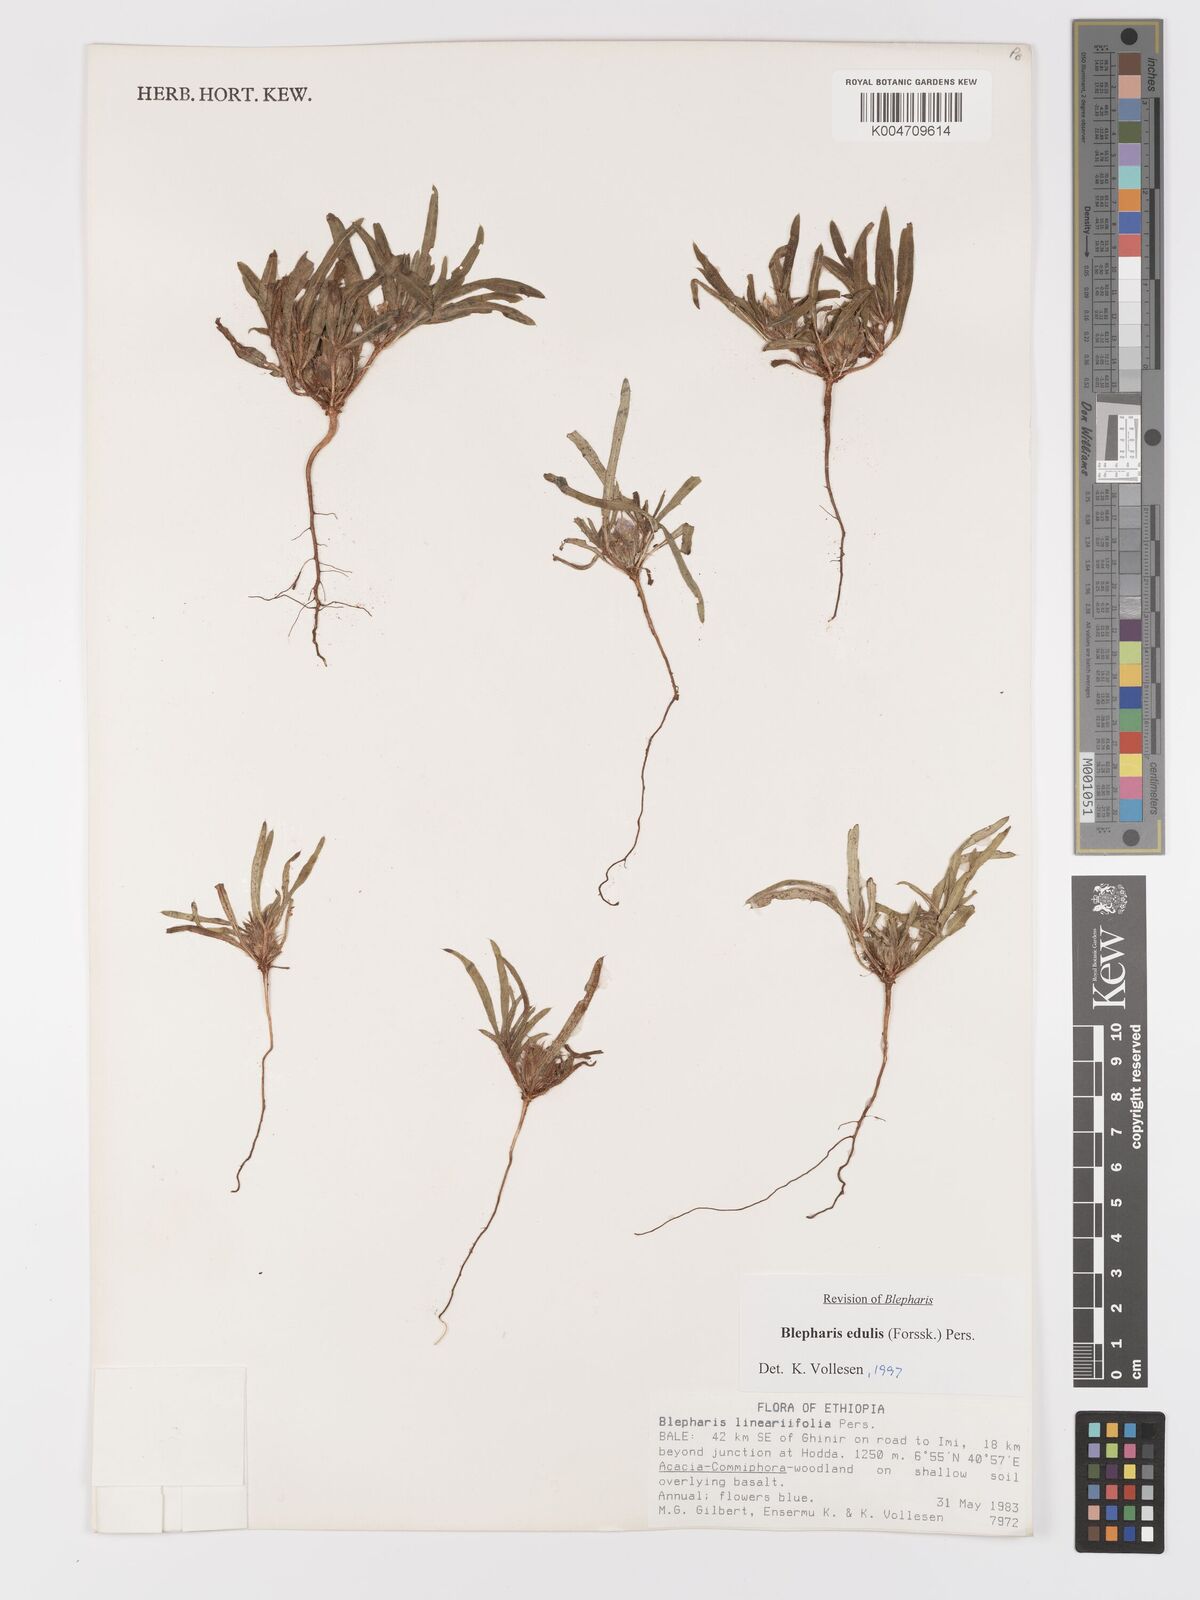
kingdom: Plantae
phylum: Tracheophyta
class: Magnoliopsida
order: Lamiales
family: Acanthaceae
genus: Blepharis
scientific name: Blepharis edulis
